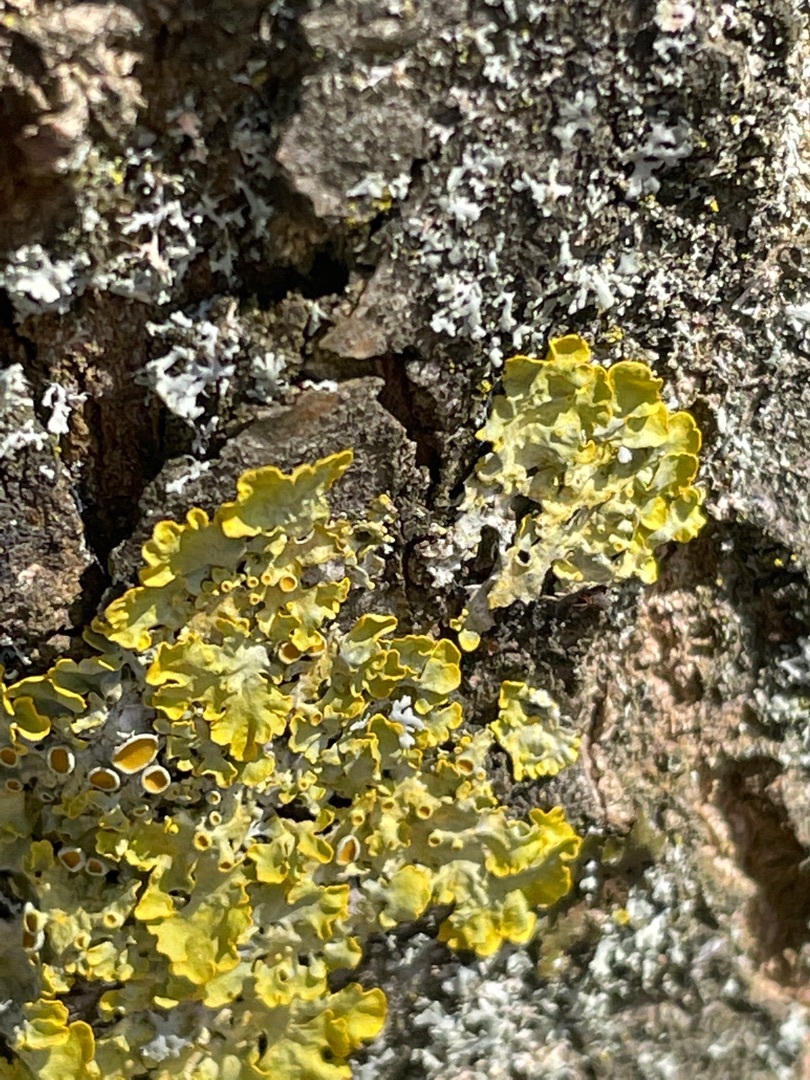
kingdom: Fungi
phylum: Ascomycota
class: Lecanoromycetes
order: Teloschistales
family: Teloschistaceae
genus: Xanthoria
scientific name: Xanthoria parietina
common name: Almindelig væggelav
